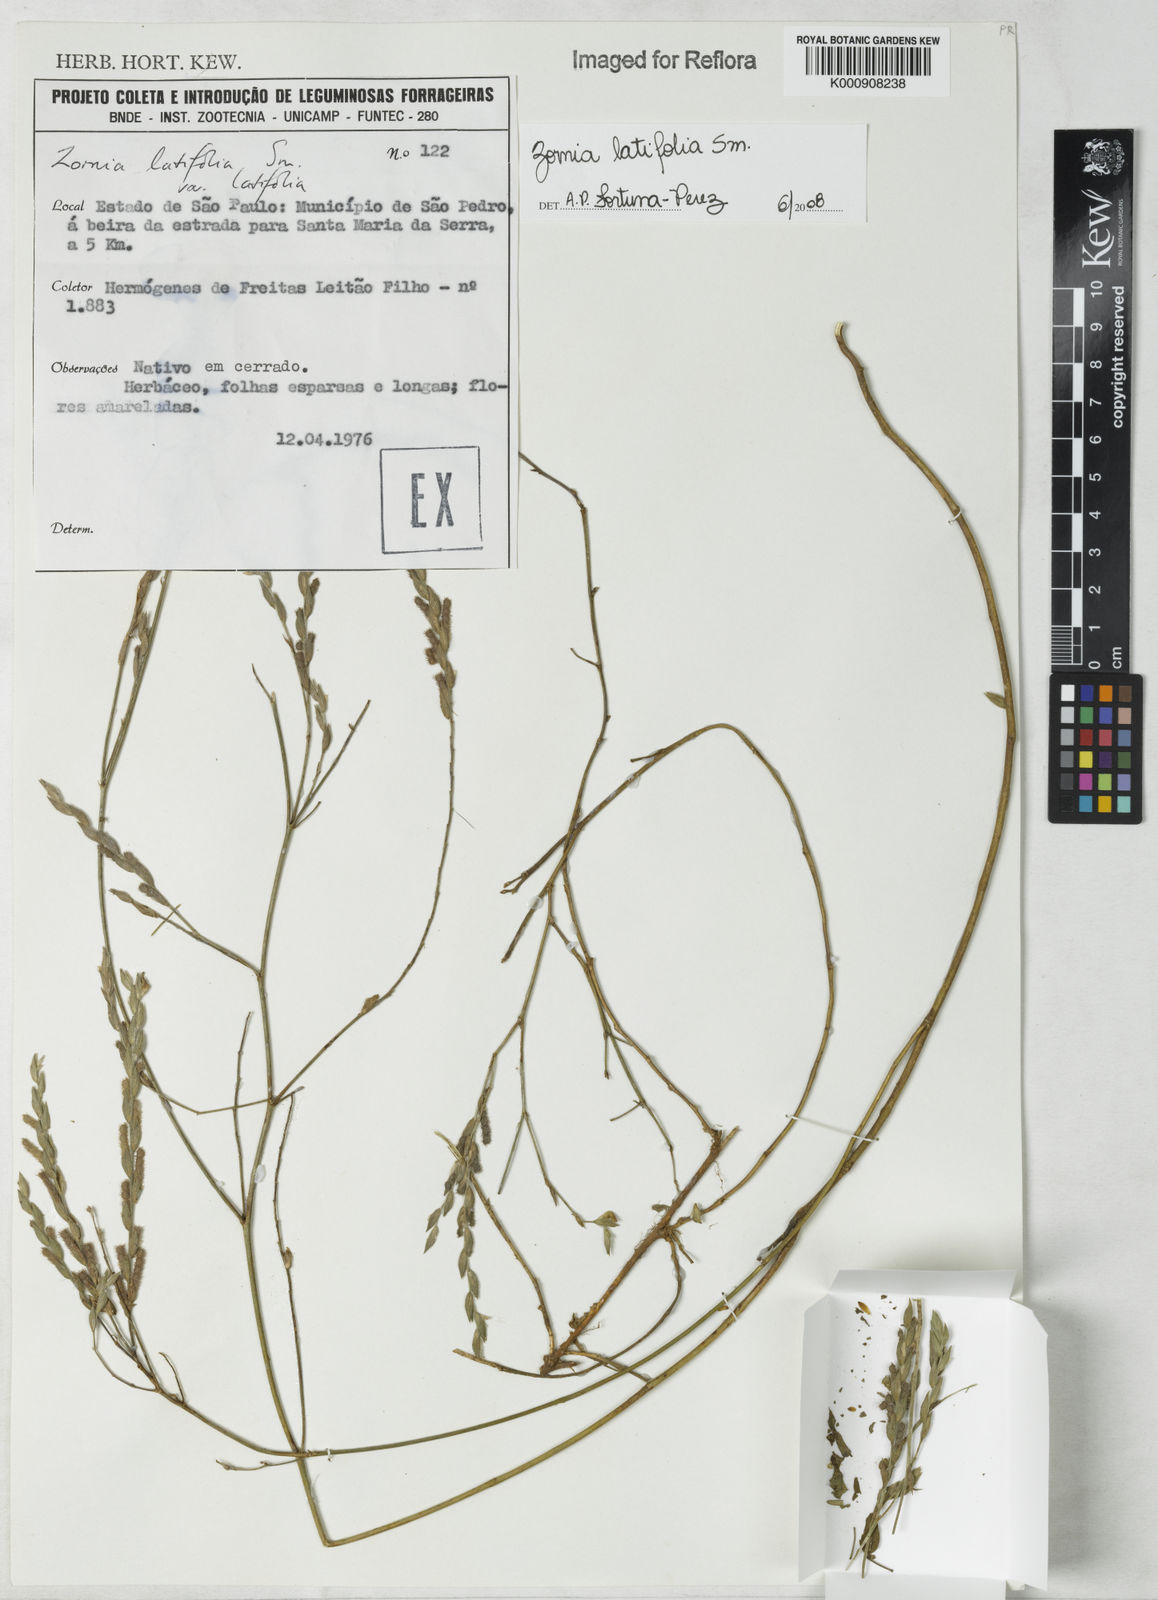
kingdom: Plantae
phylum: Tracheophyta
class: Magnoliopsida
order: Fabales
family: Fabaceae
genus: Zornia
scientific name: Zornia latifolia
